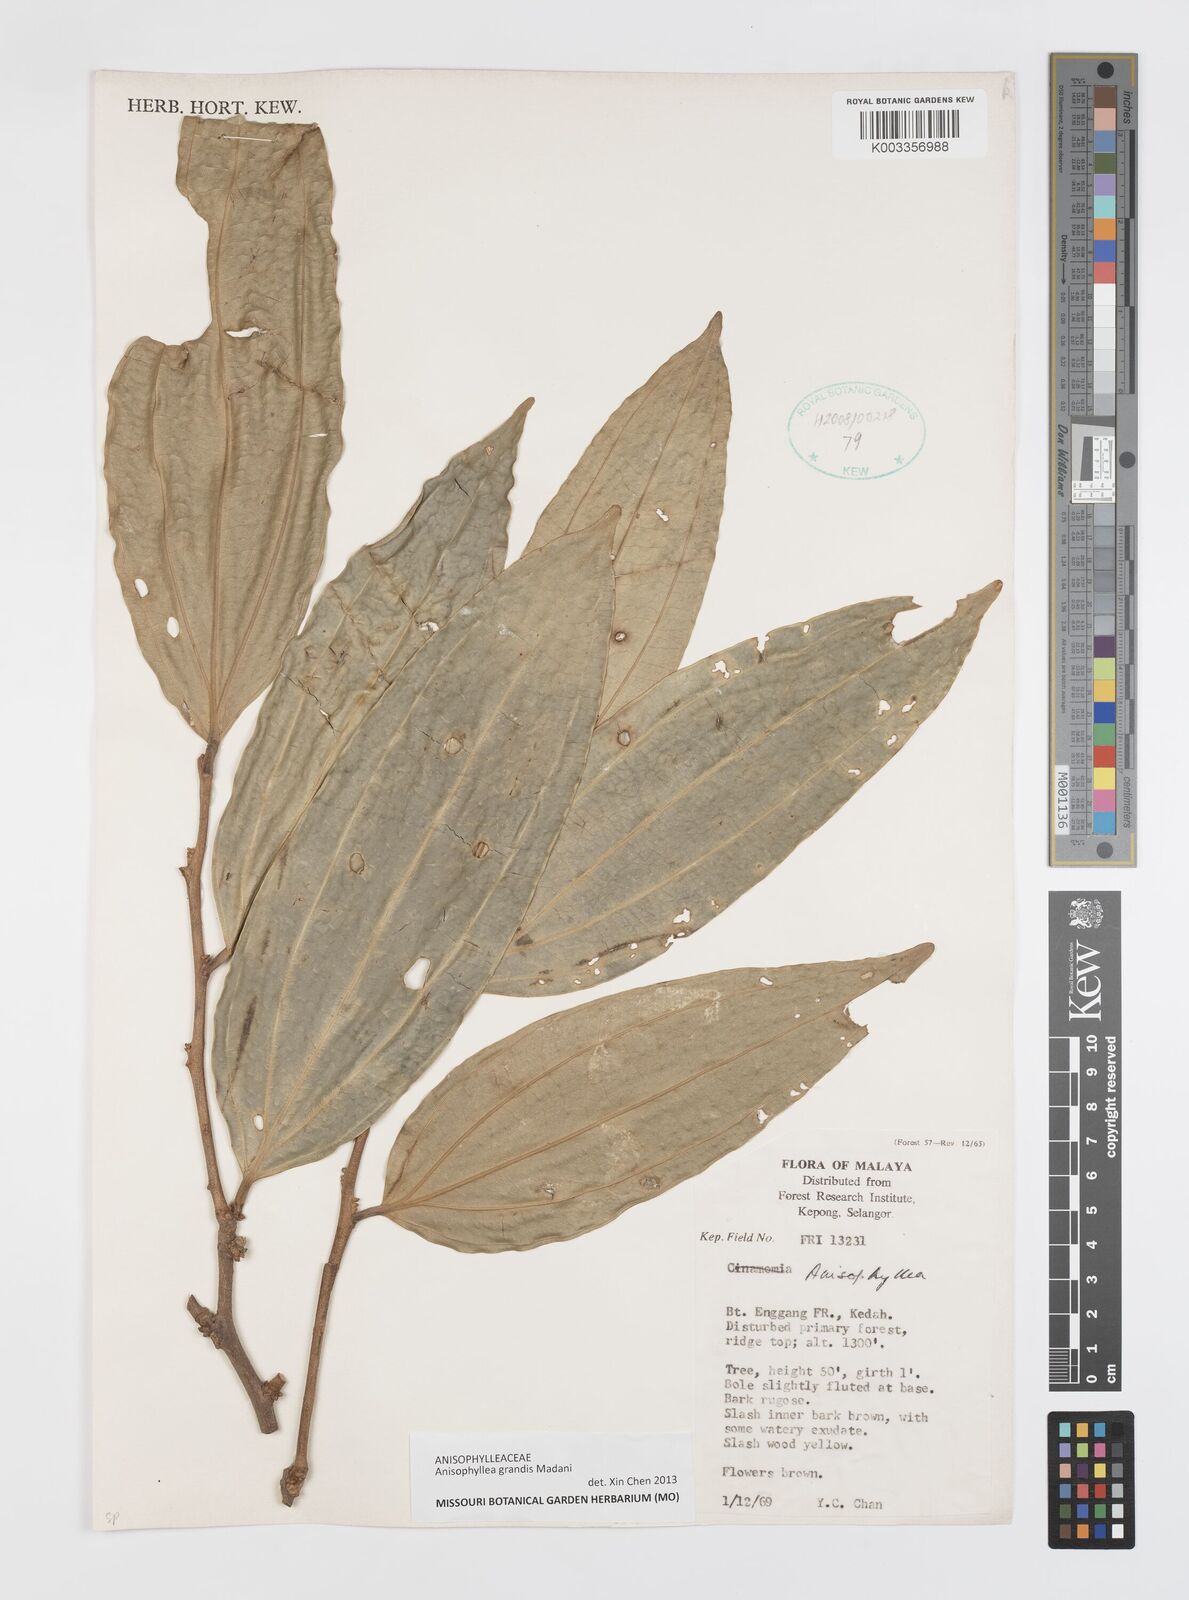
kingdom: Plantae
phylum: Tracheophyta
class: Magnoliopsida
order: Cucurbitales
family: Anisophylleaceae
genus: Anisophyllea
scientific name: Anisophyllea globosa
